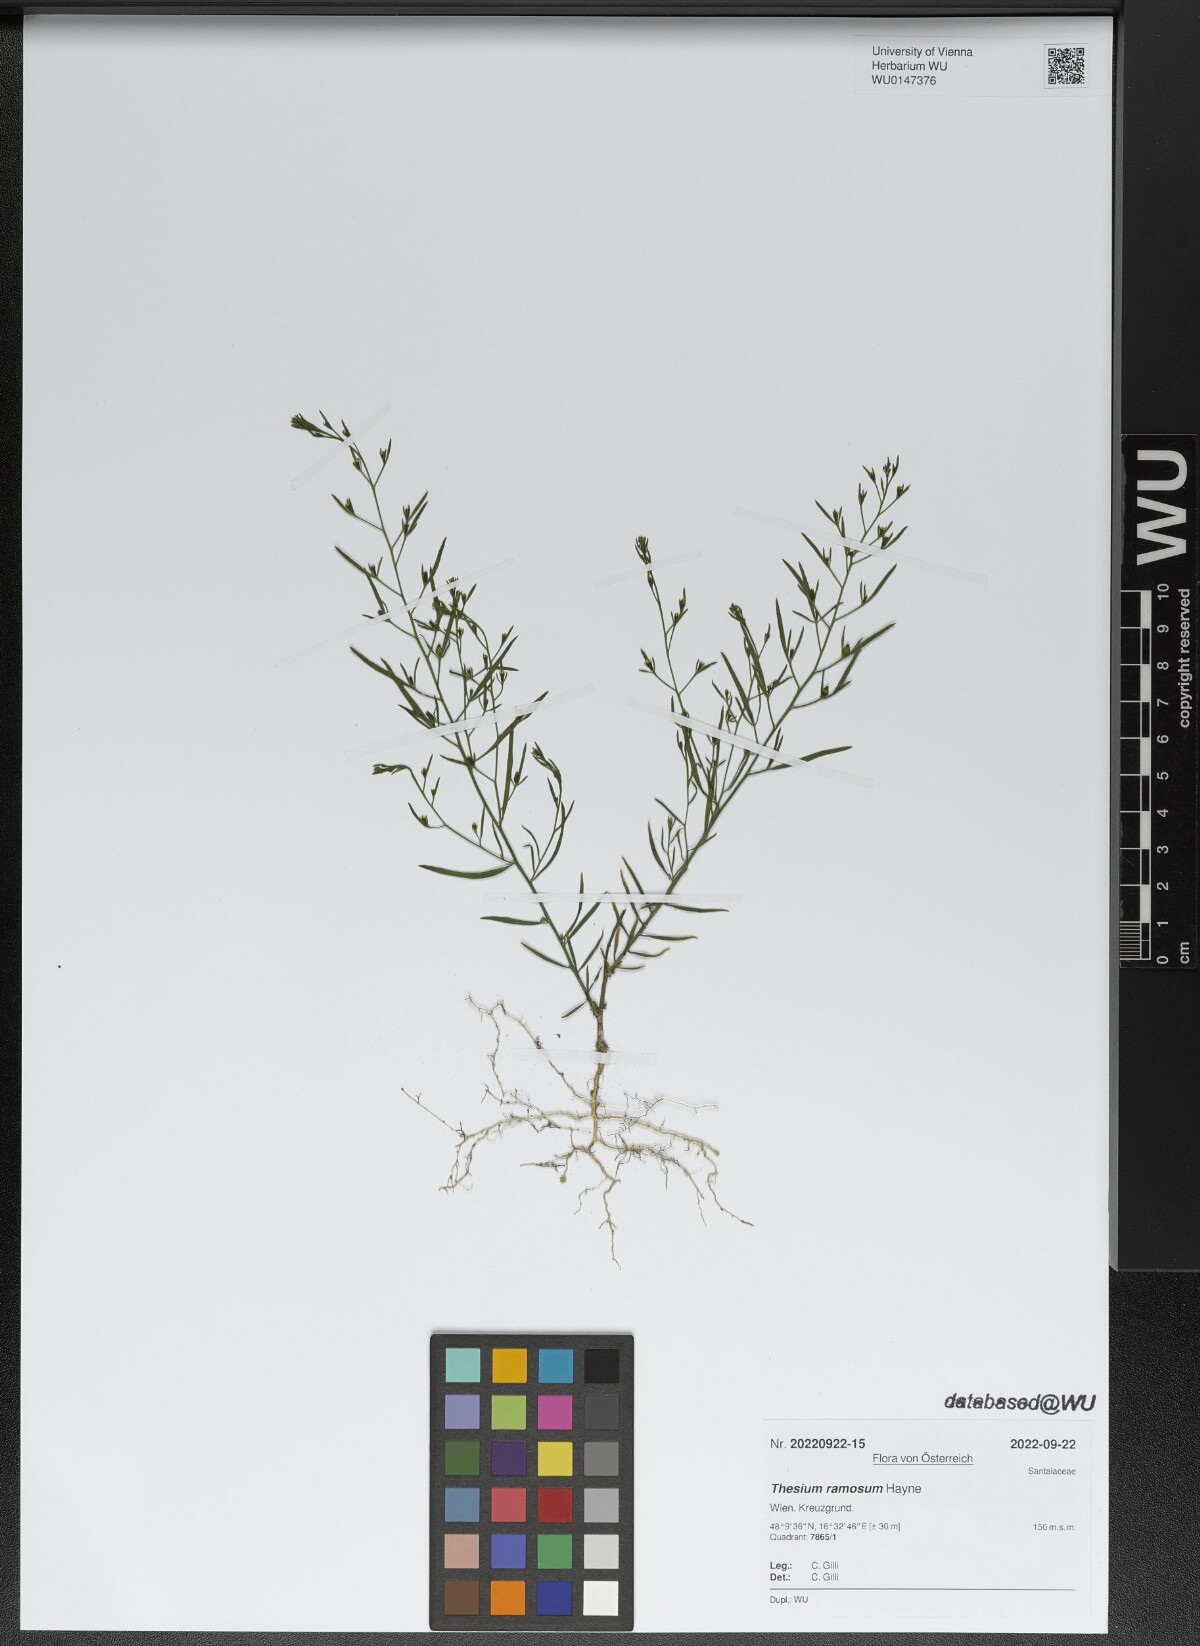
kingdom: Plantae
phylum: Tracheophyta
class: Magnoliopsida
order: Santalales
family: Thesiaceae
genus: Thesium
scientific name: Thesium ramosum
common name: Field thesium
